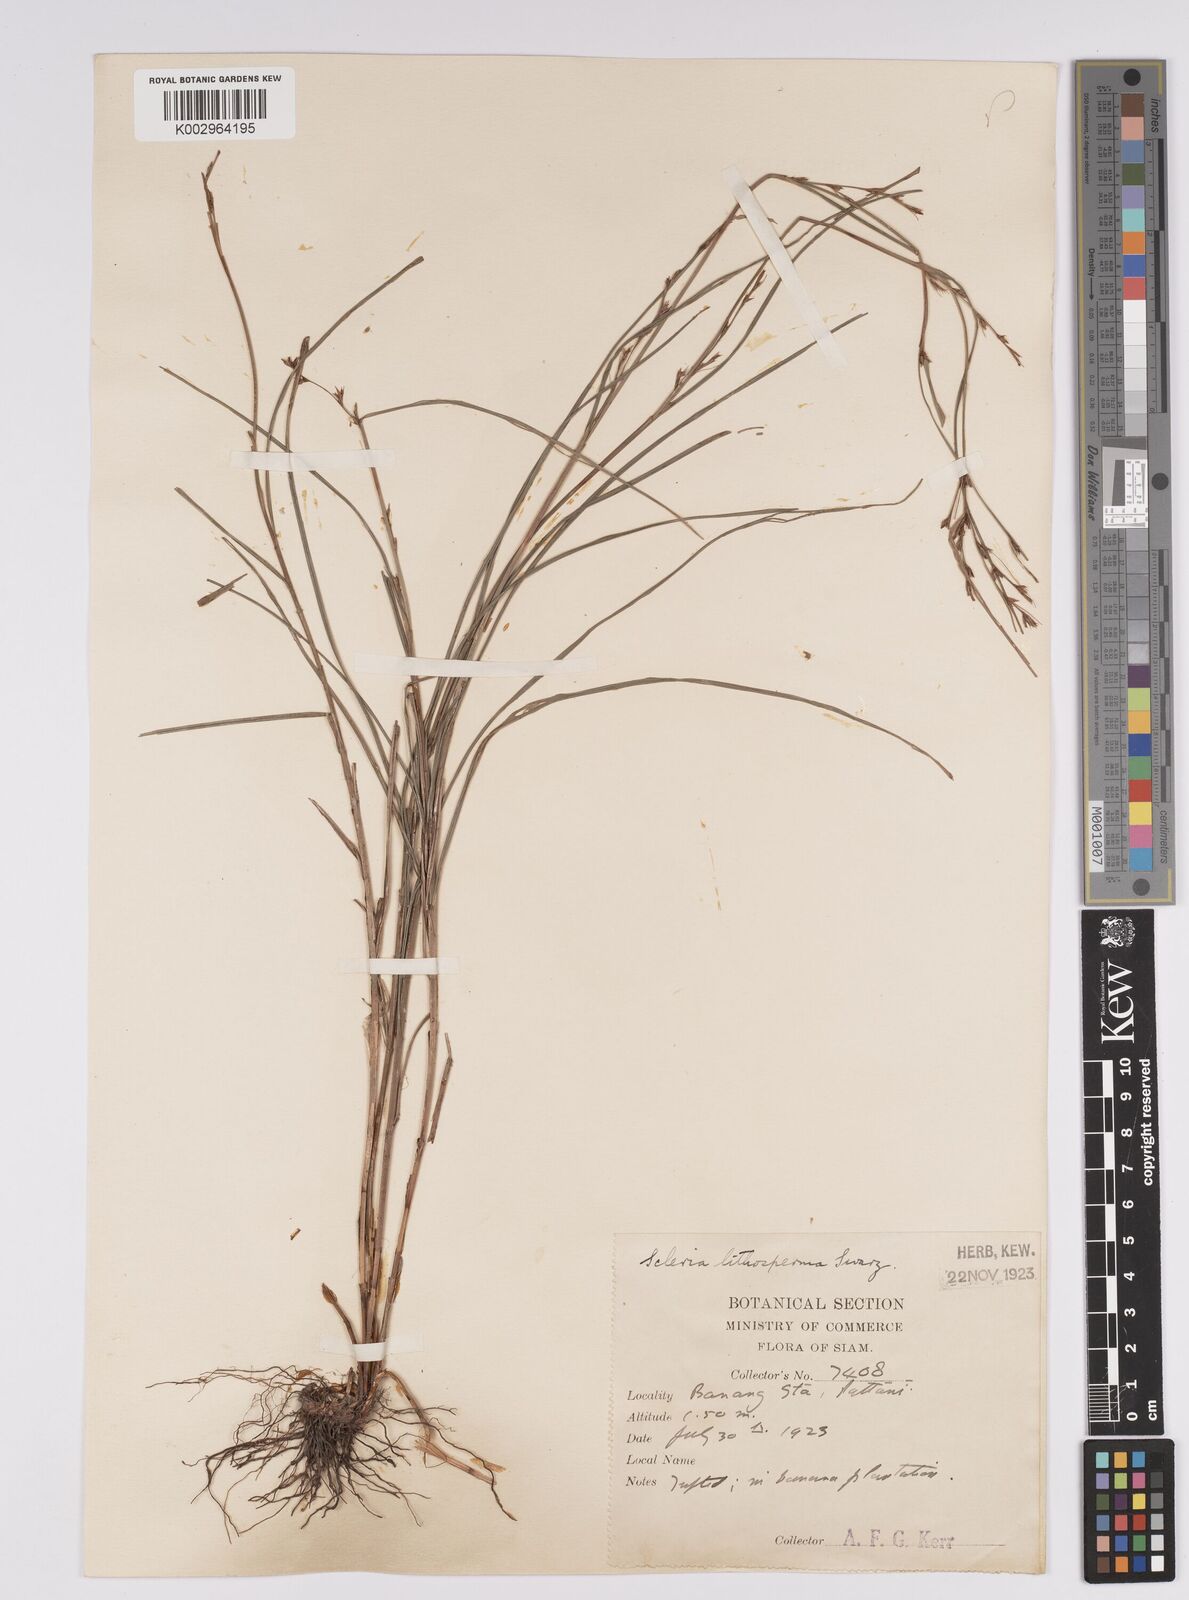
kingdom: Plantae
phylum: Tracheophyta
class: Liliopsida
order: Poales
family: Cyperaceae
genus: Scleria
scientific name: Scleria lithosperma
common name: Florida keys nut-rush
